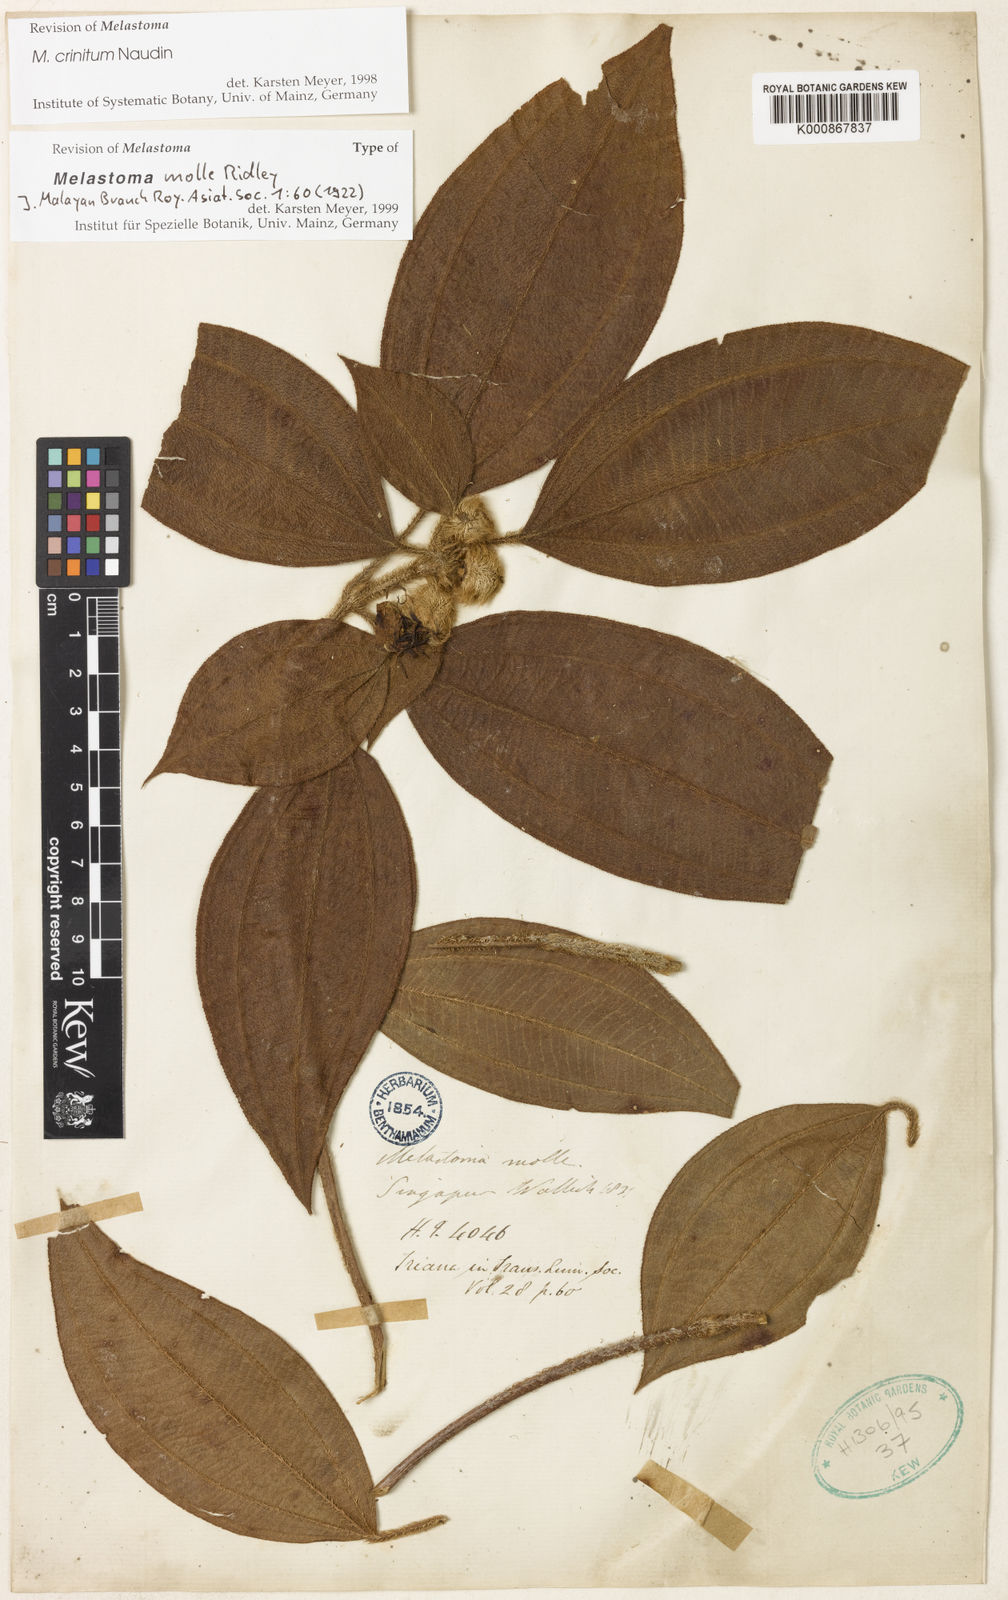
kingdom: Plantae
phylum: Tracheophyta
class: Magnoliopsida
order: Myrtales
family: Melastomataceae
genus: Melastoma
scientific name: Melastoma penicillatum
